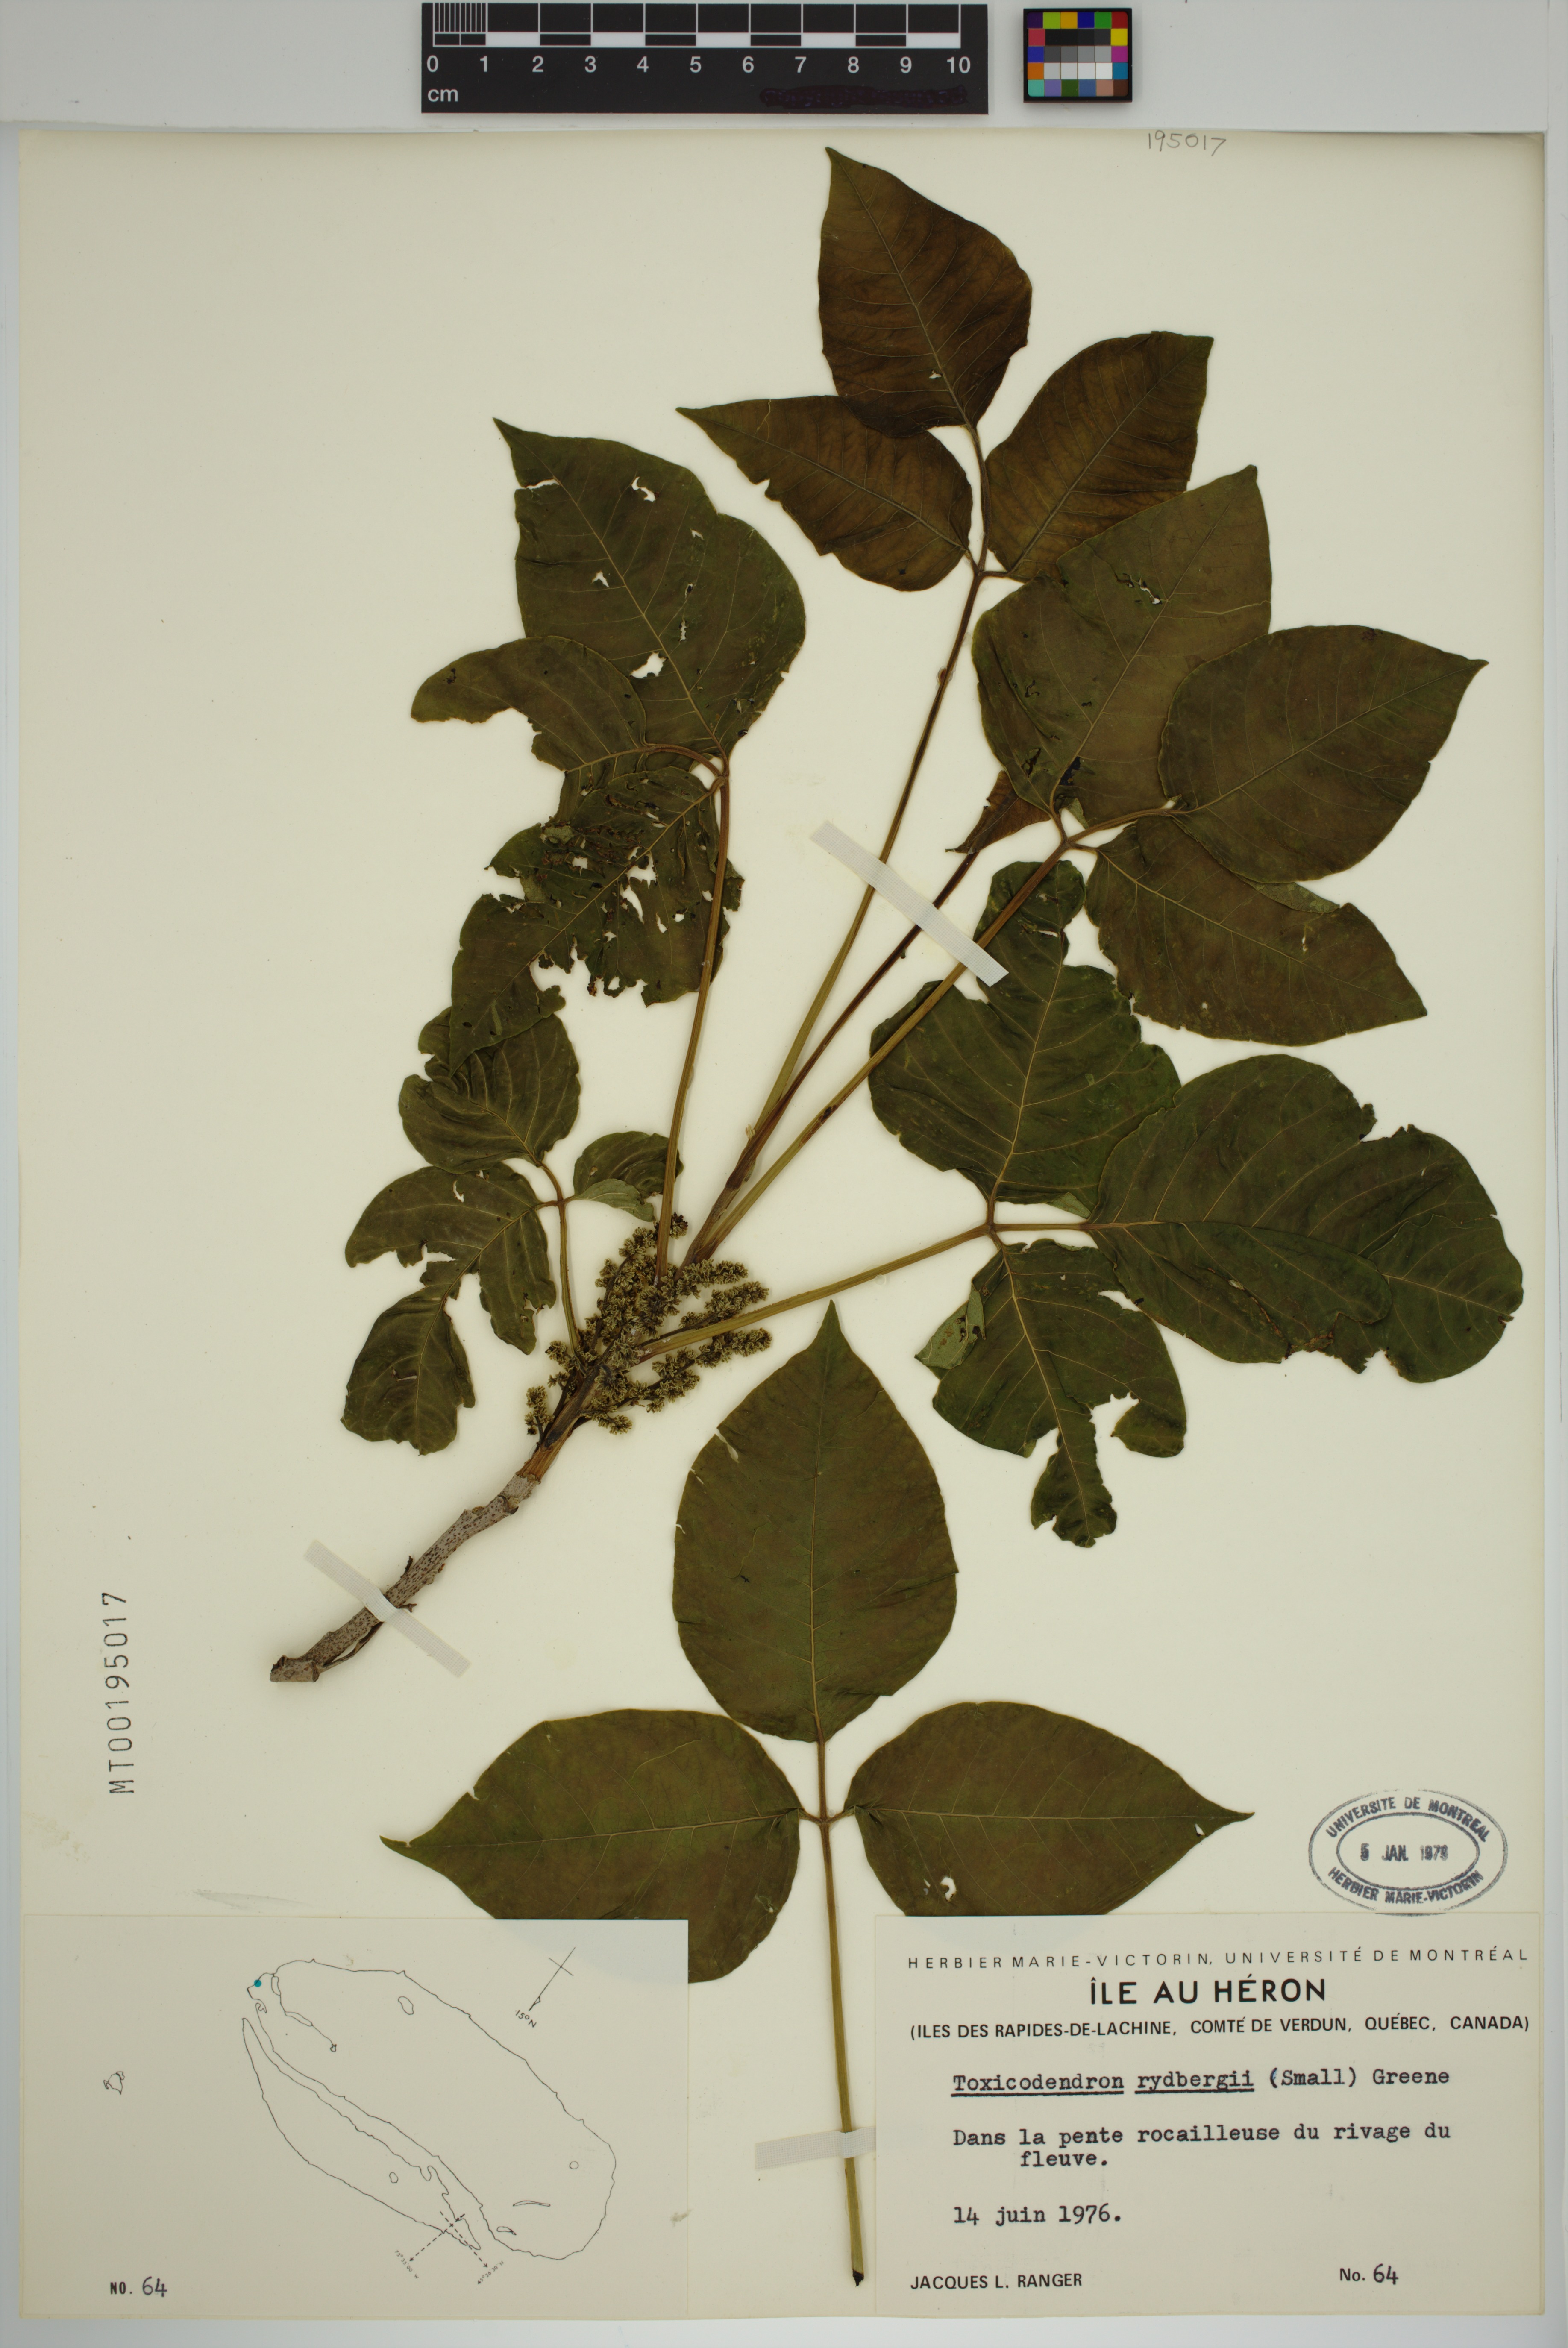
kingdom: Plantae
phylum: Tracheophyta
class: Magnoliopsida
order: Sapindales
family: Anacardiaceae
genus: Toxicodendron
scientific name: Toxicodendron rydbergii
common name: Rydberg's poison-ivy
